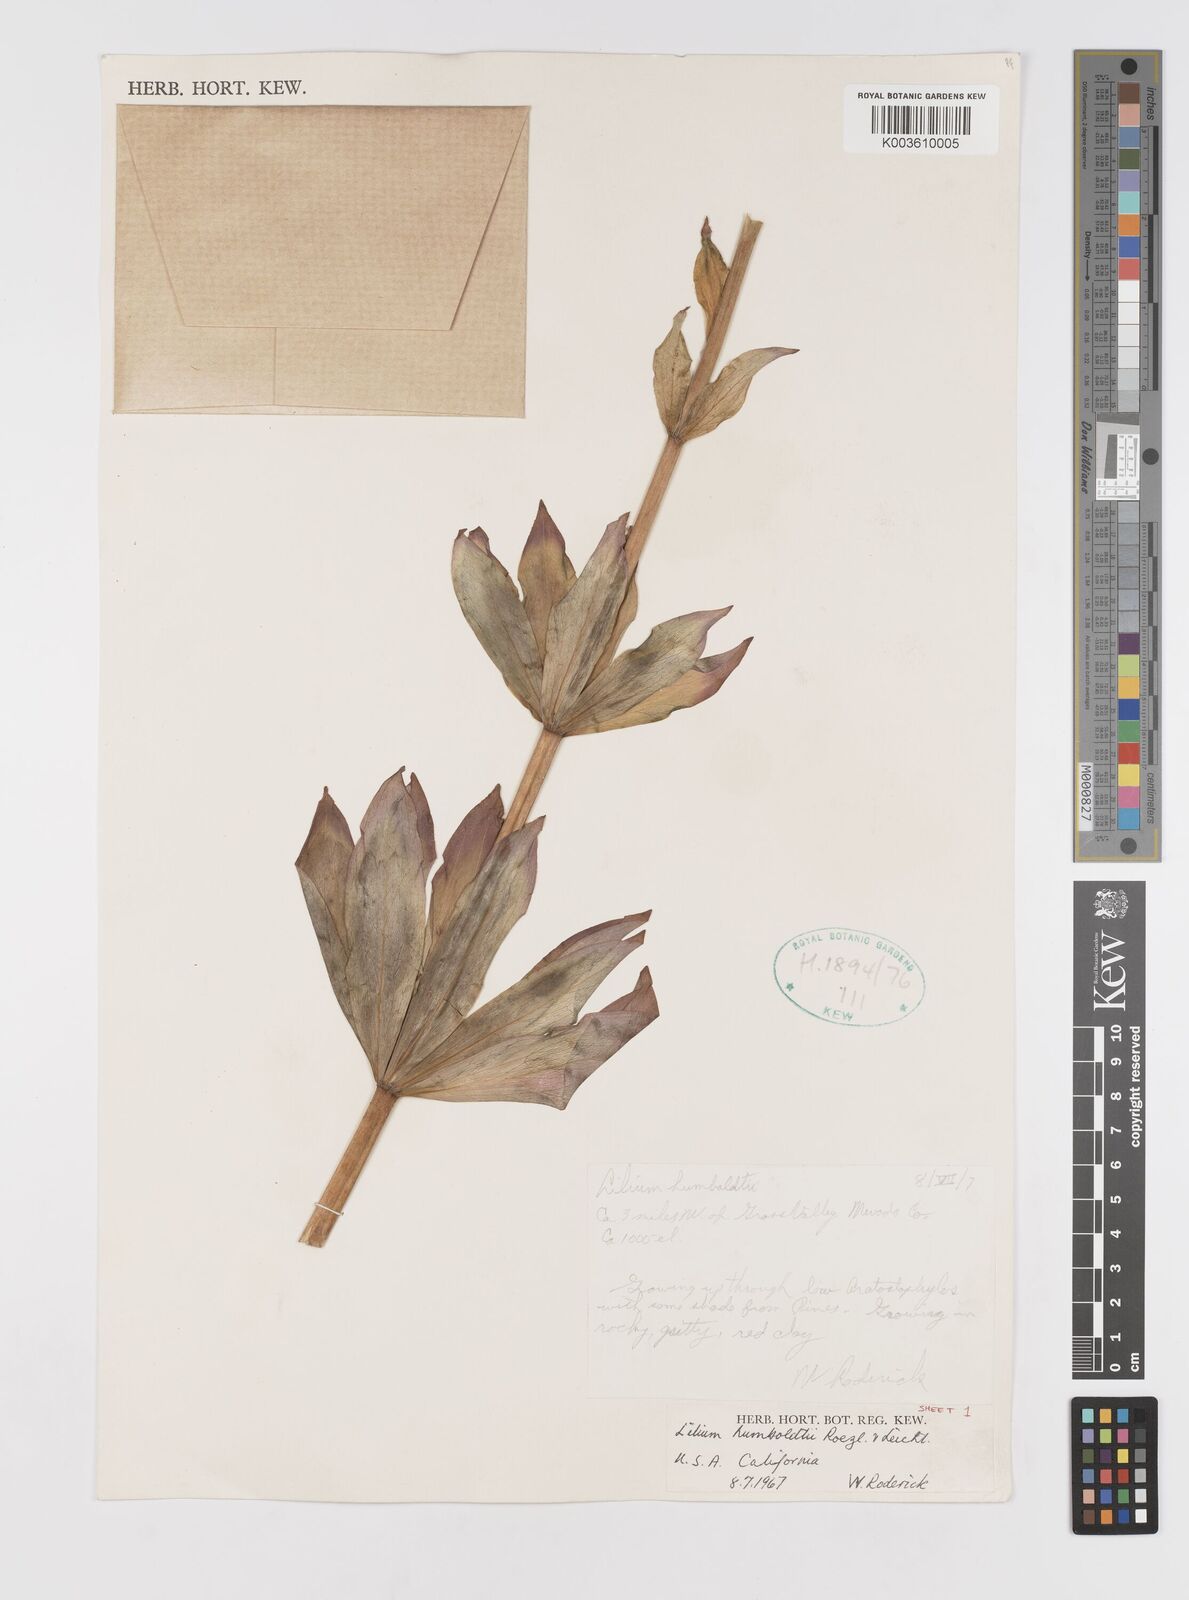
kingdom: Plantae
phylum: Tracheophyta
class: Liliopsida
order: Liliales
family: Liliaceae
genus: Lilium
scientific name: Lilium humboldtii
